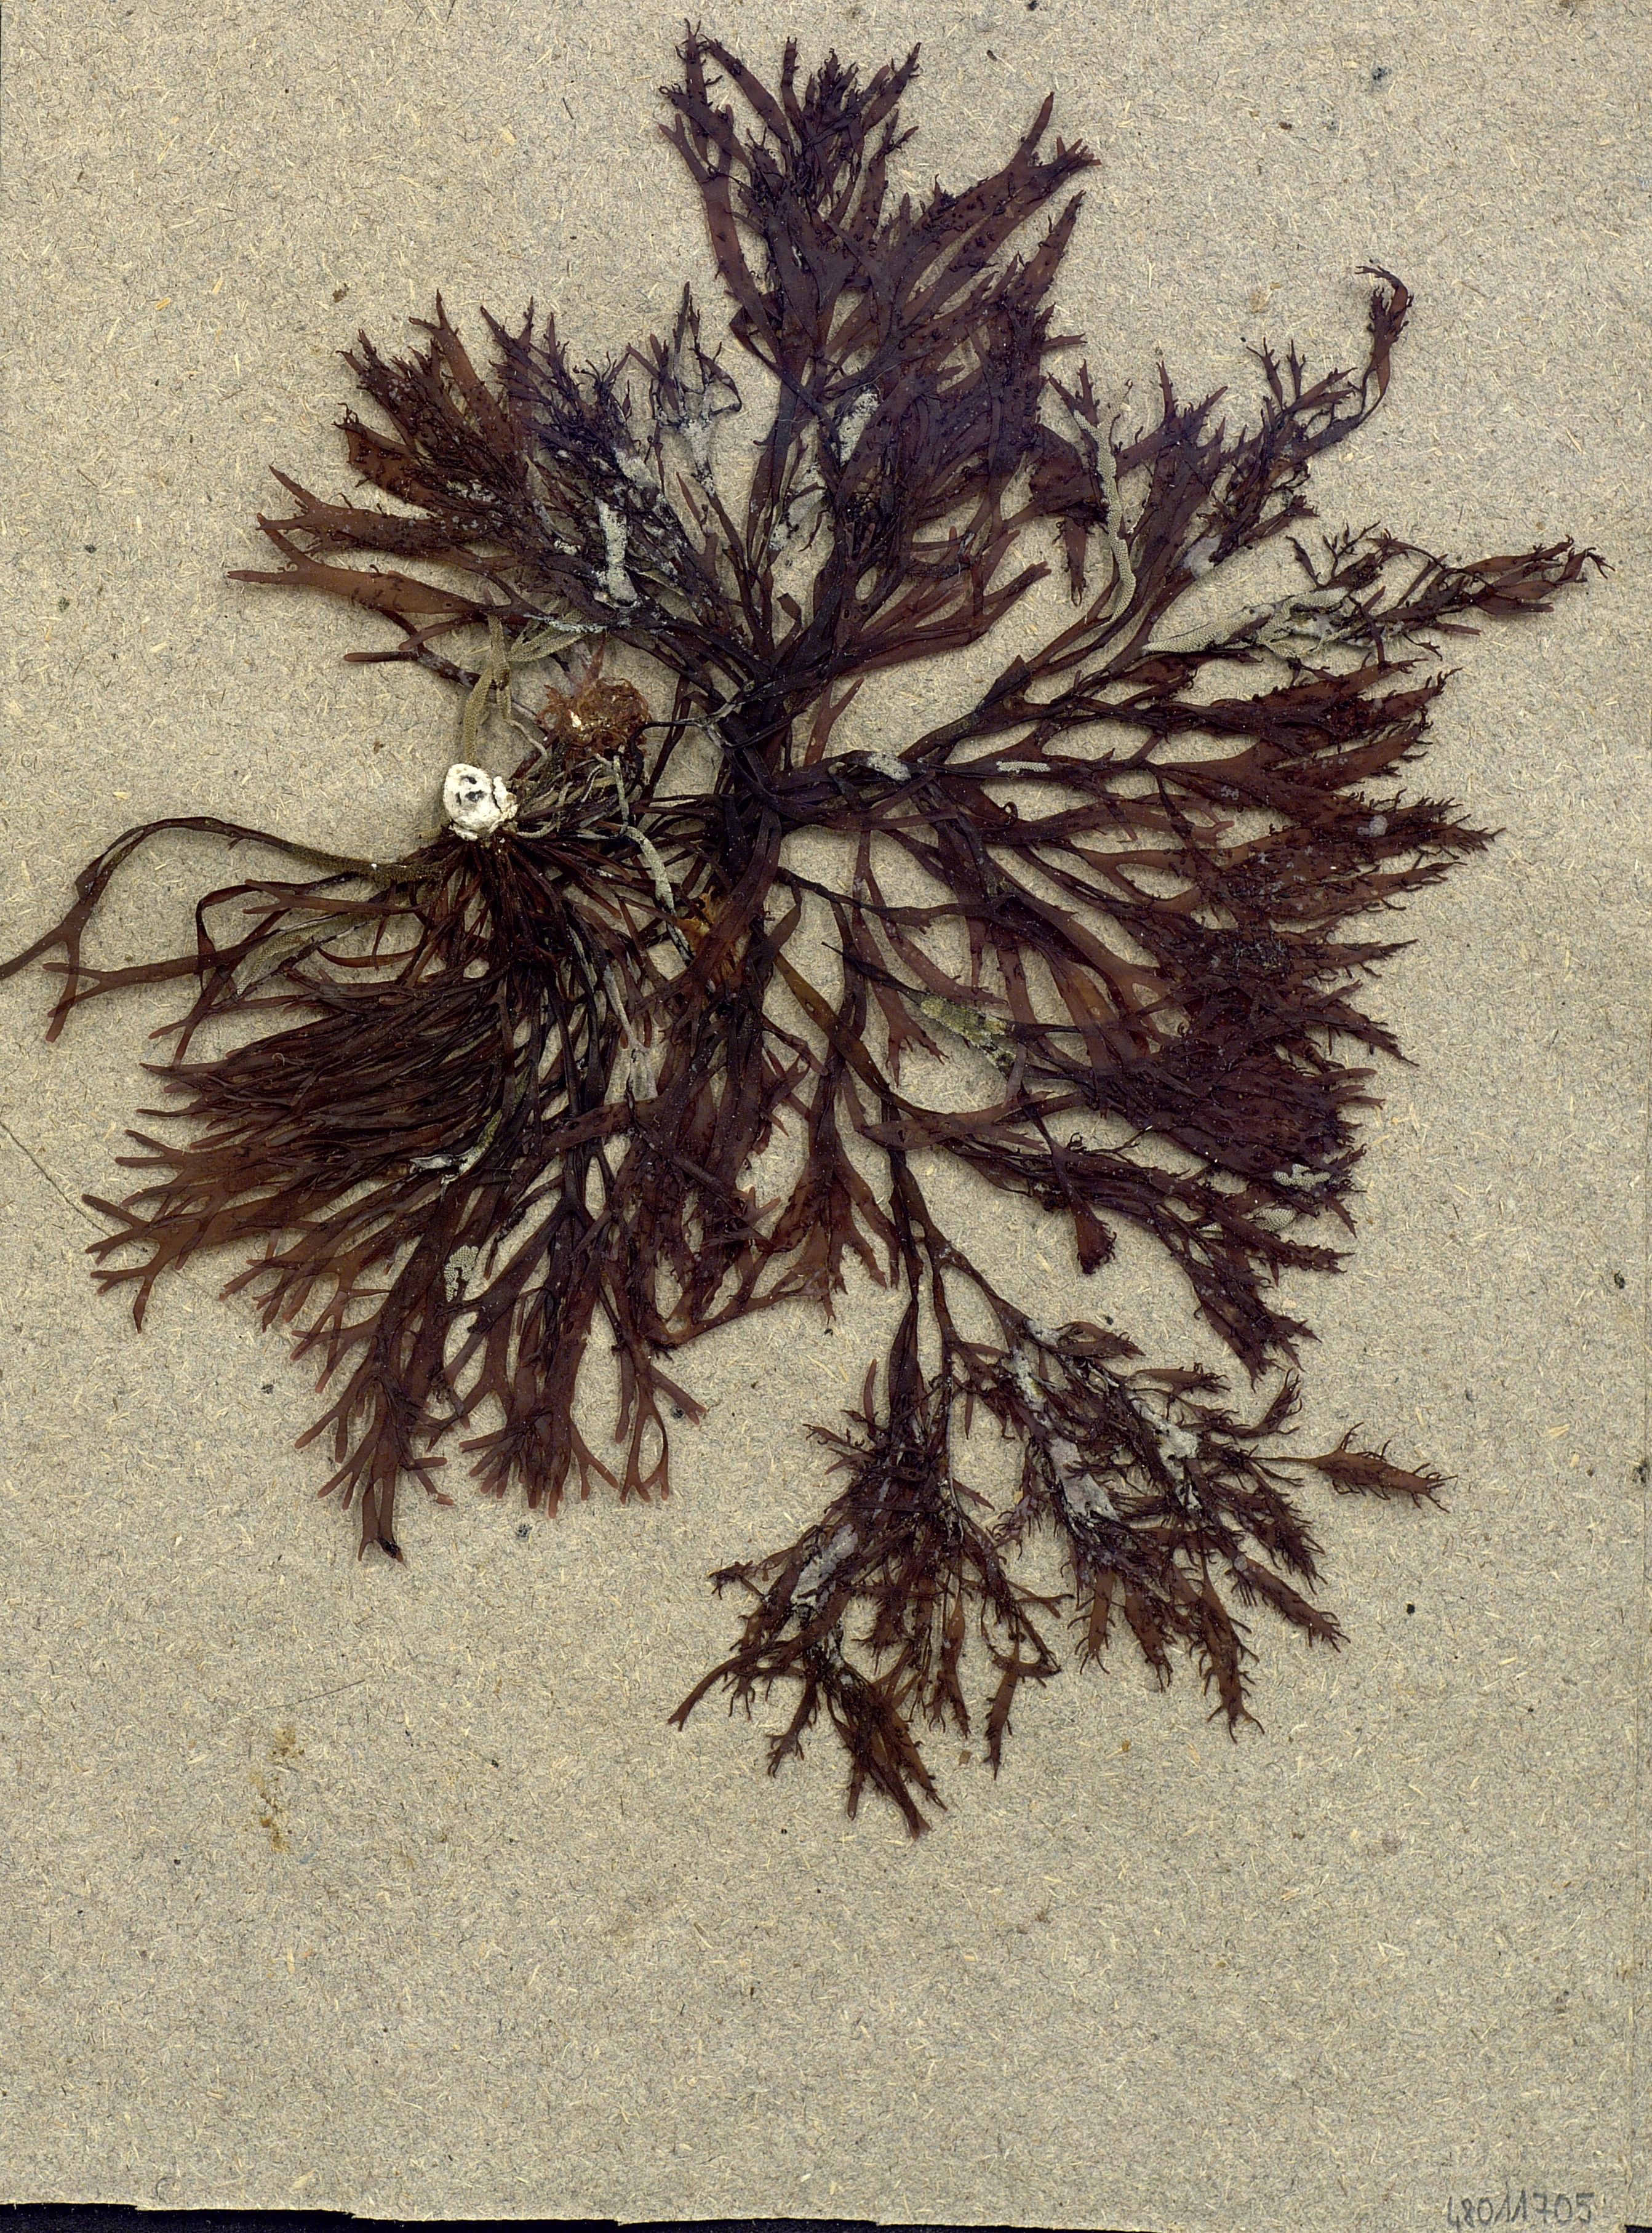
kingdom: Plantae
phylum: Rhodophyta
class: Florideophyceae
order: Ceramiales
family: Ceramiaceae
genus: Ceramium
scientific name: Ceramium
